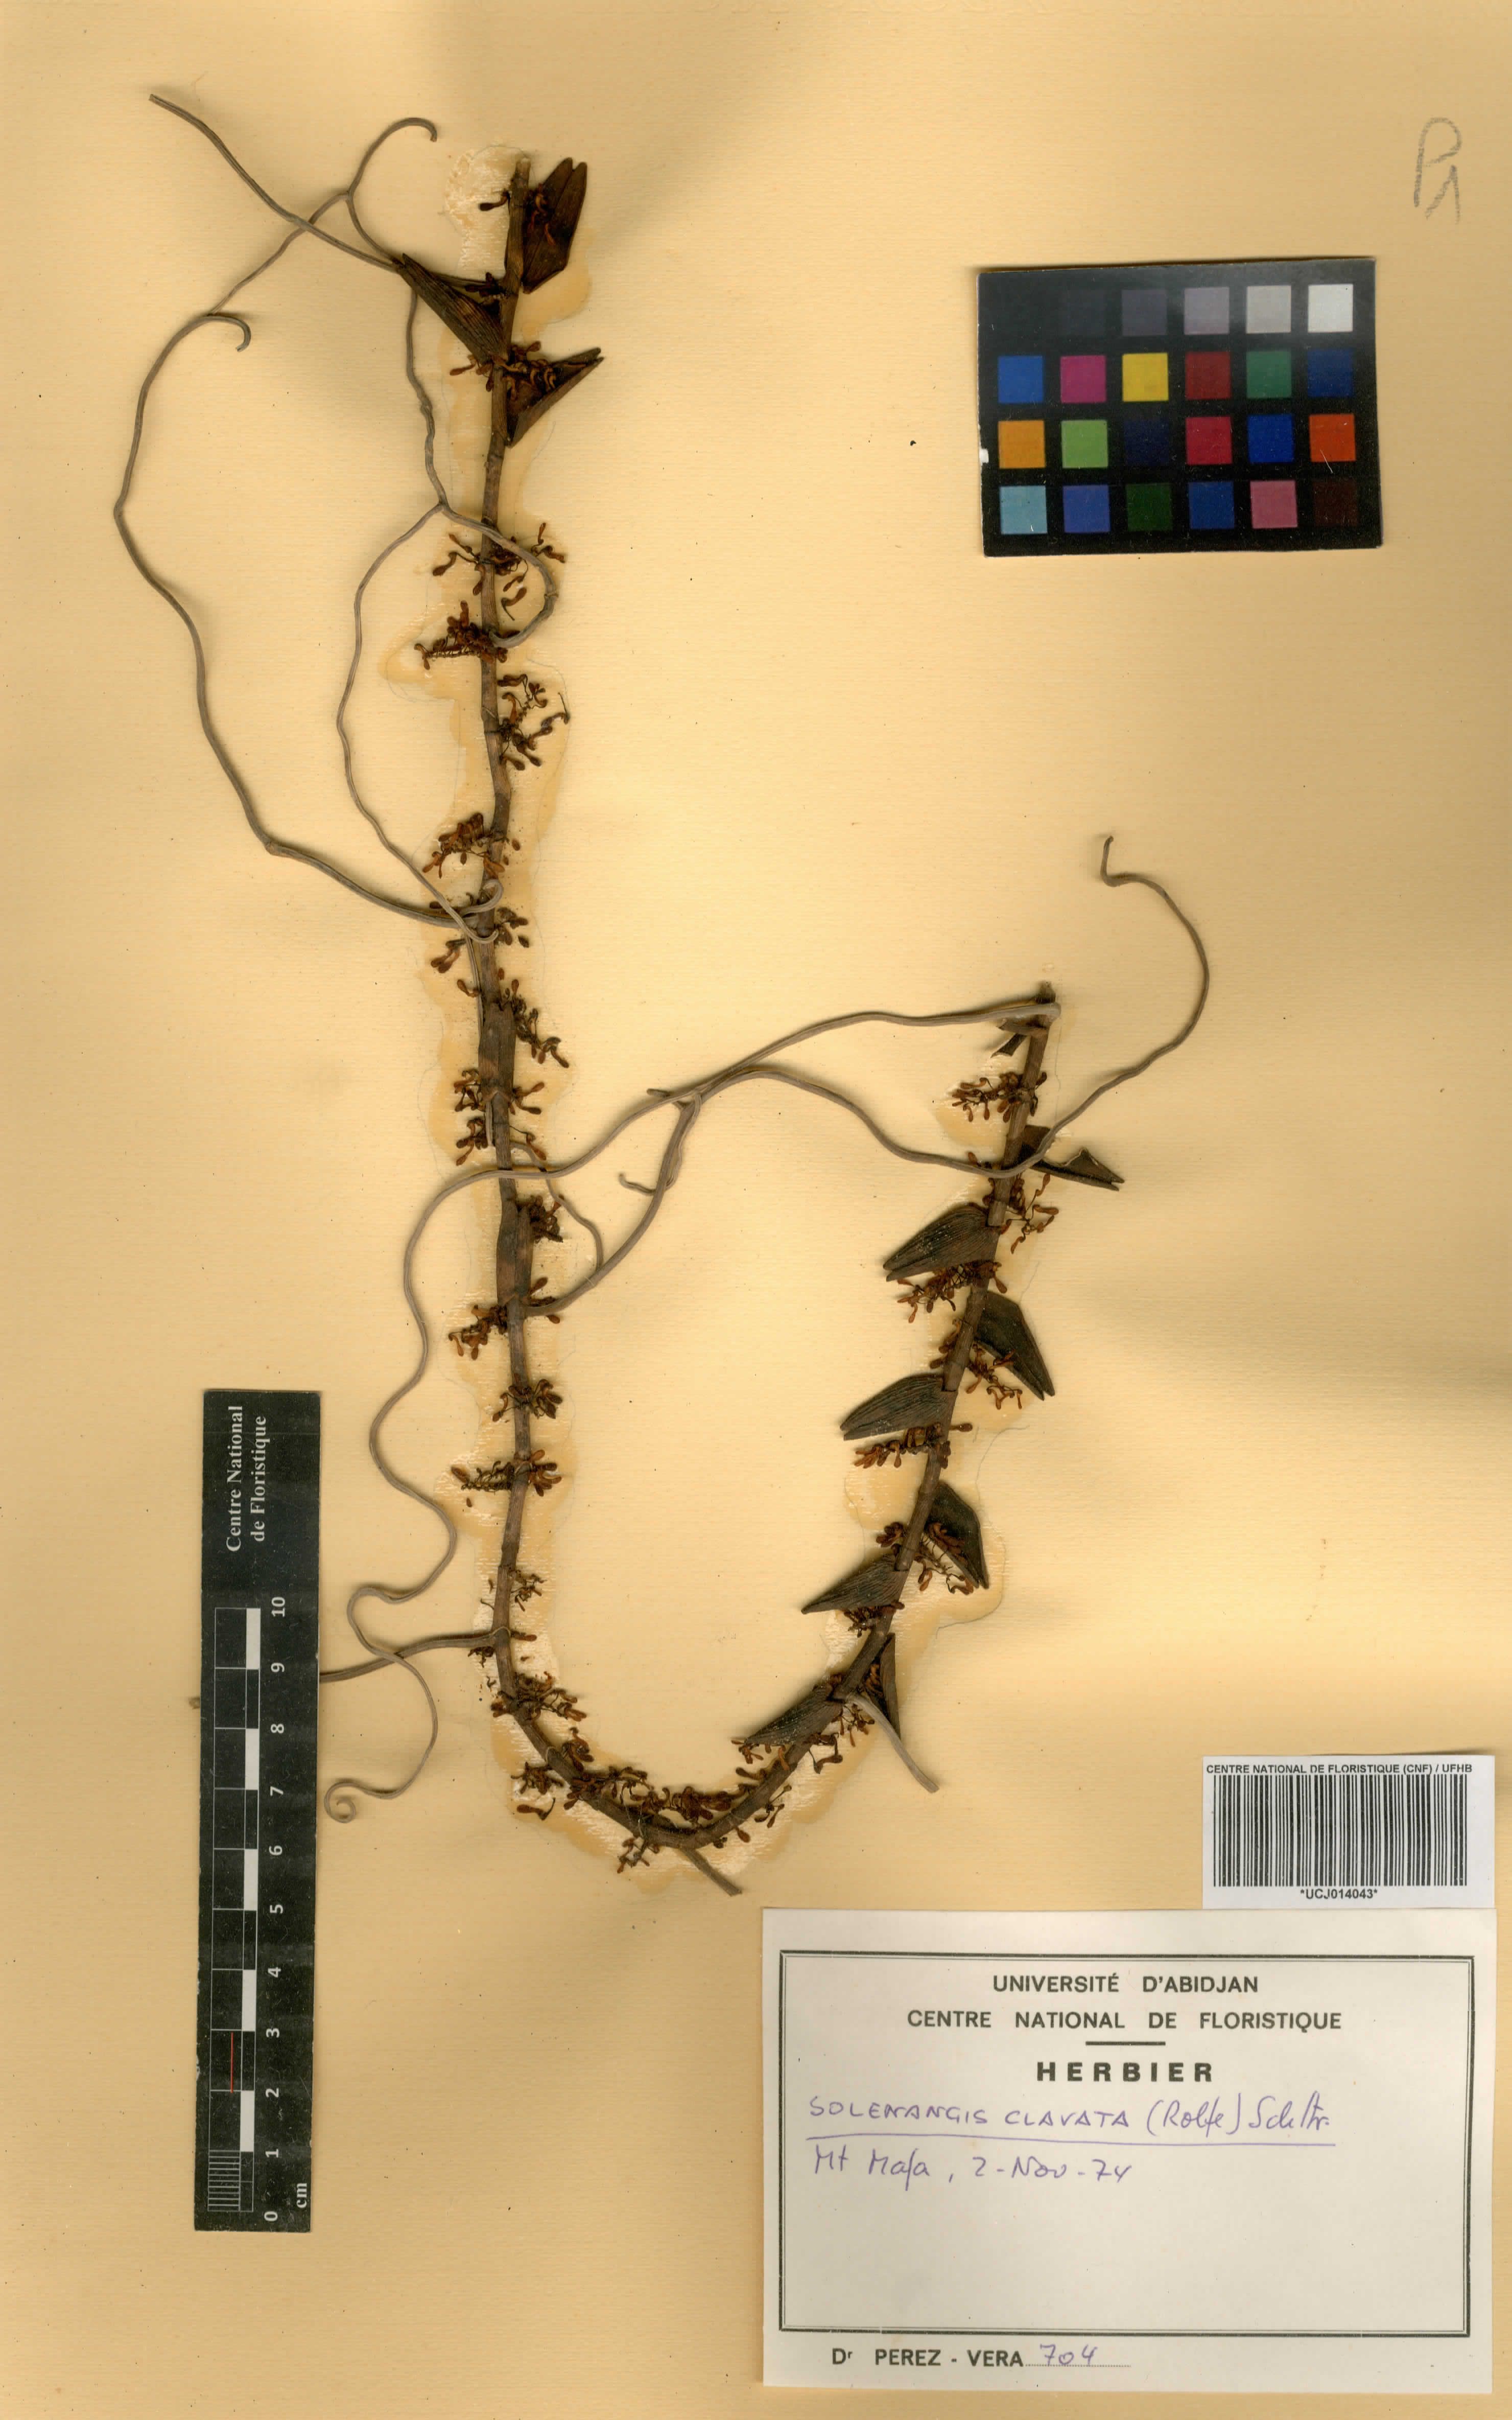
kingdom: Plantae
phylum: Tracheophyta
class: Liliopsida
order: Asparagales
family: Orchidaceae
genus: Solenangis
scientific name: Solenangis clavata
